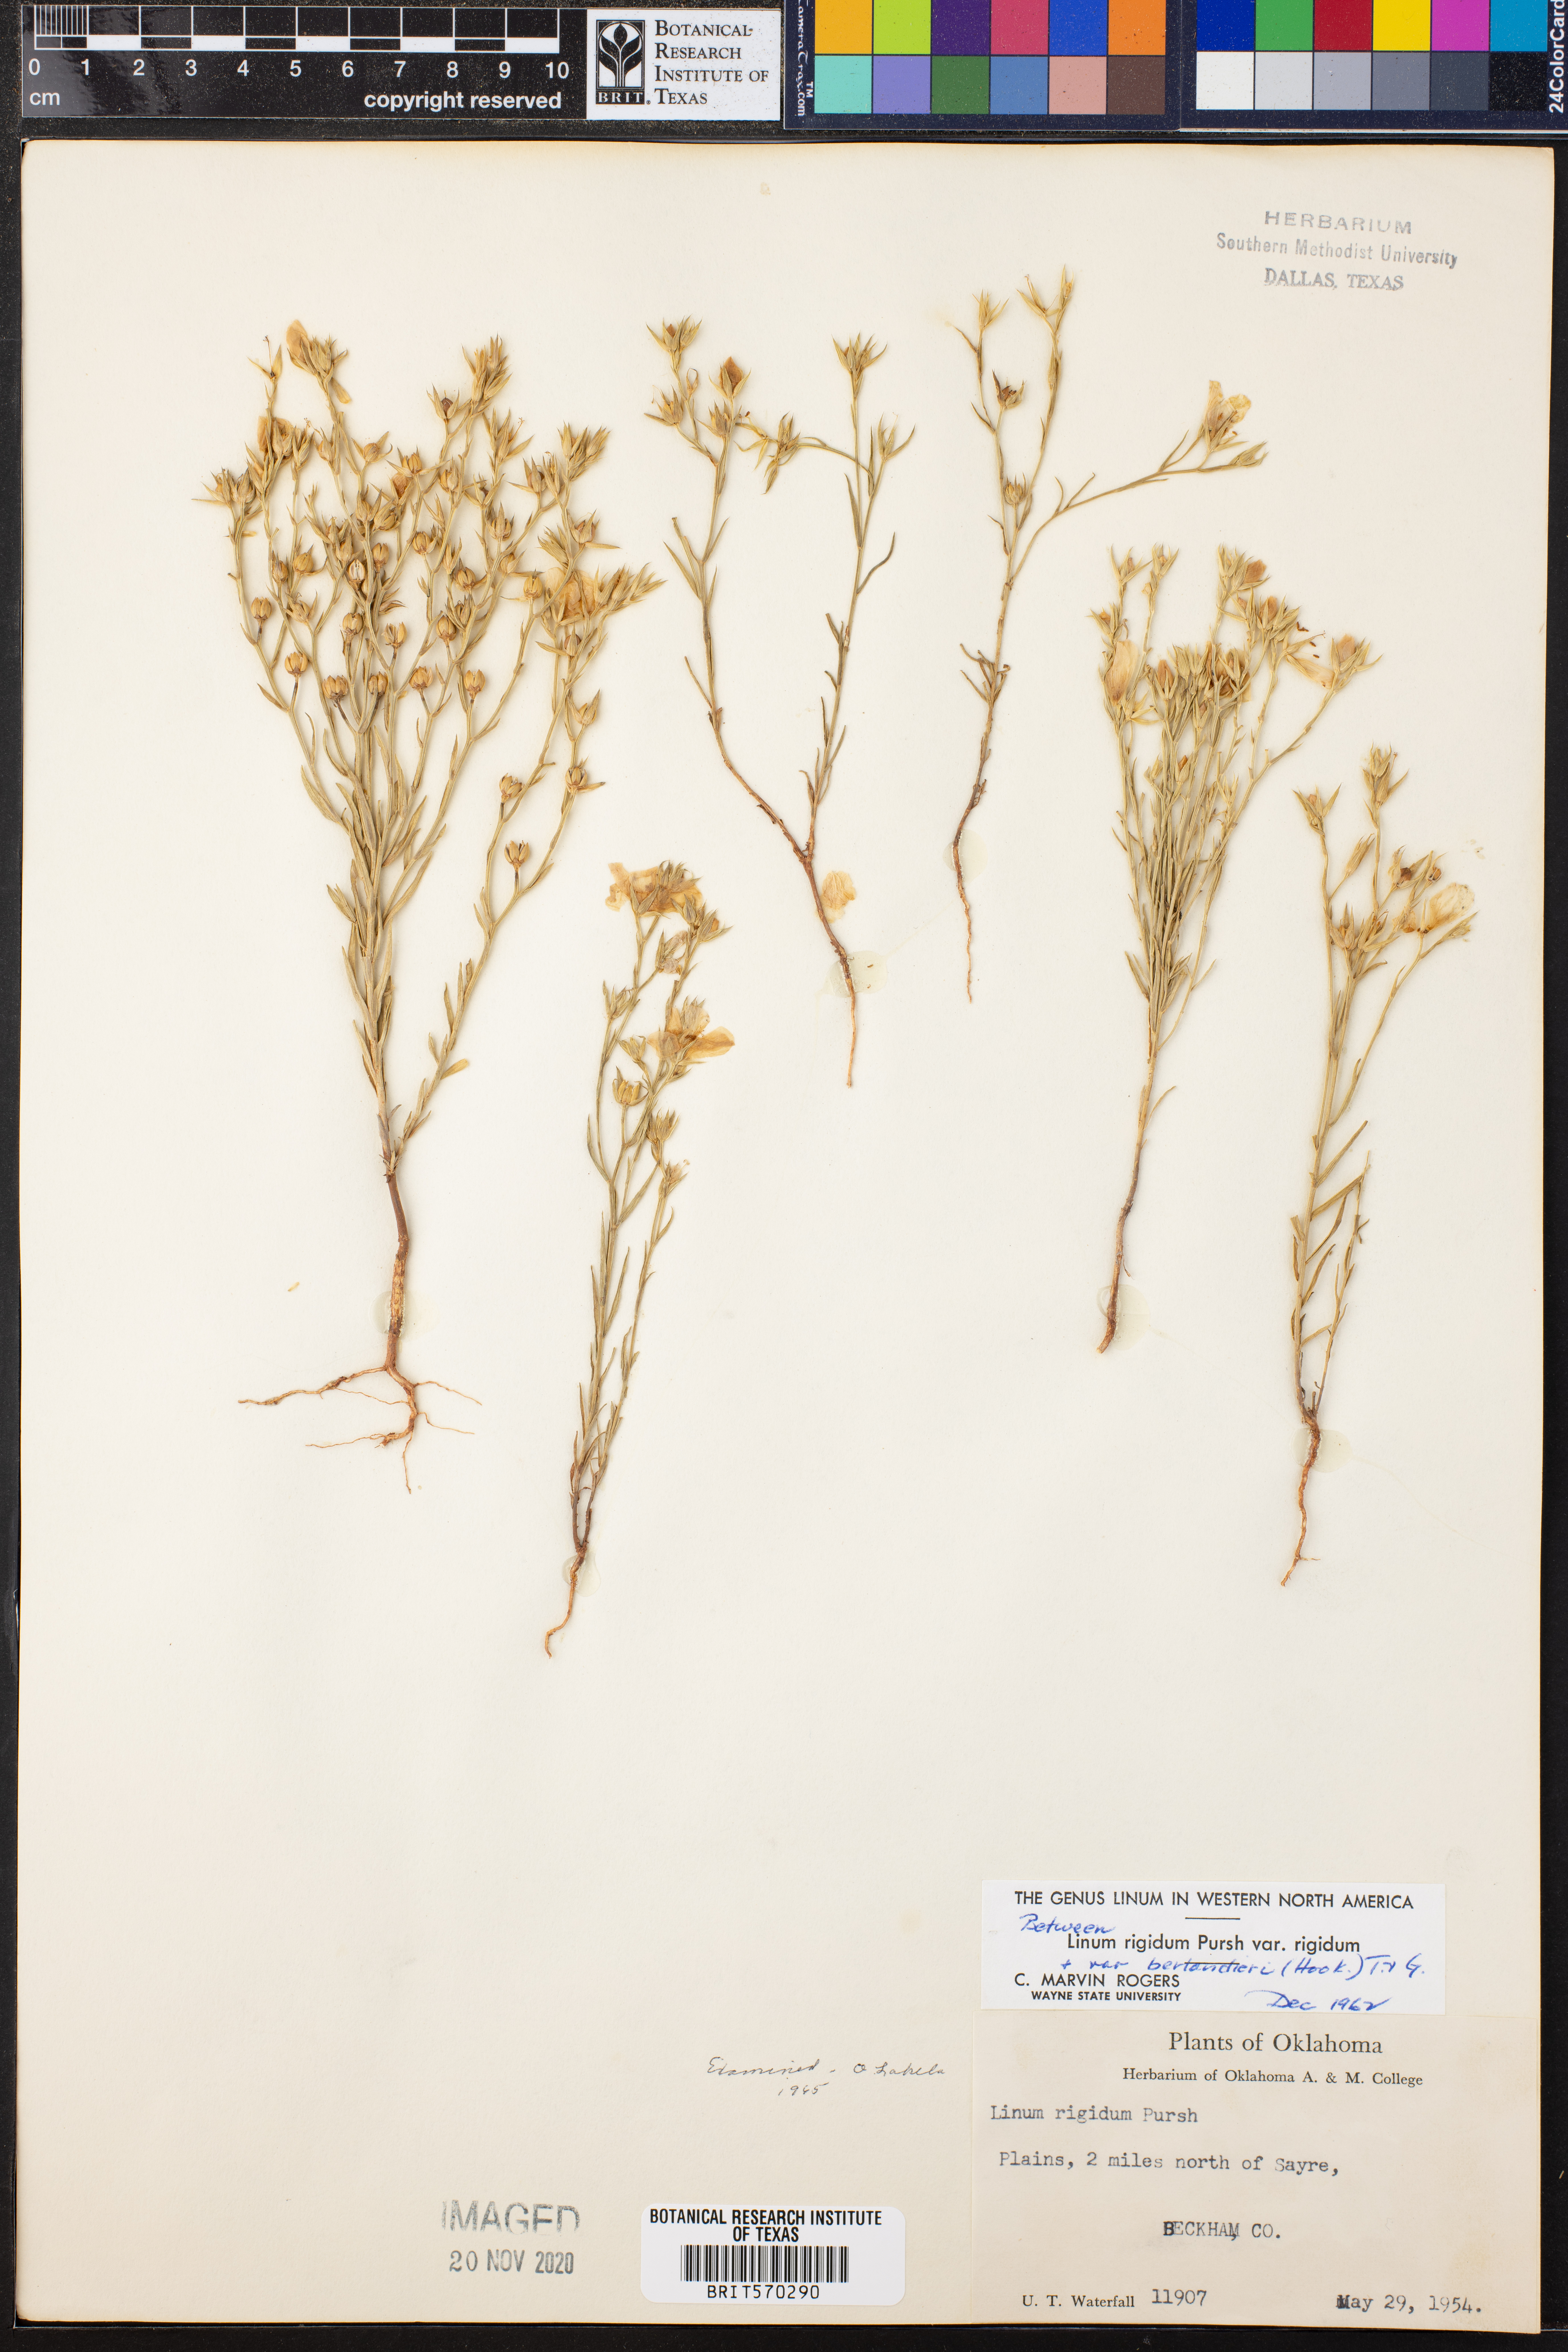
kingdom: Plantae
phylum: Tracheophyta
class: Magnoliopsida
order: Malpighiales
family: Linaceae
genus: Linum
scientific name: Linum rigidum
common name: Stiff-stem flax
